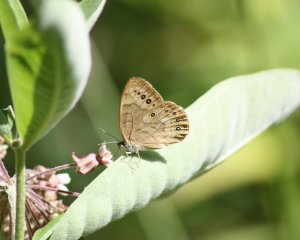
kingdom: Animalia
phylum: Arthropoda
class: Insecta
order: Lepidoptera
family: Nymphalidae
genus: Lethe
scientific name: Lethe eurydice
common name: Eyed Brown
